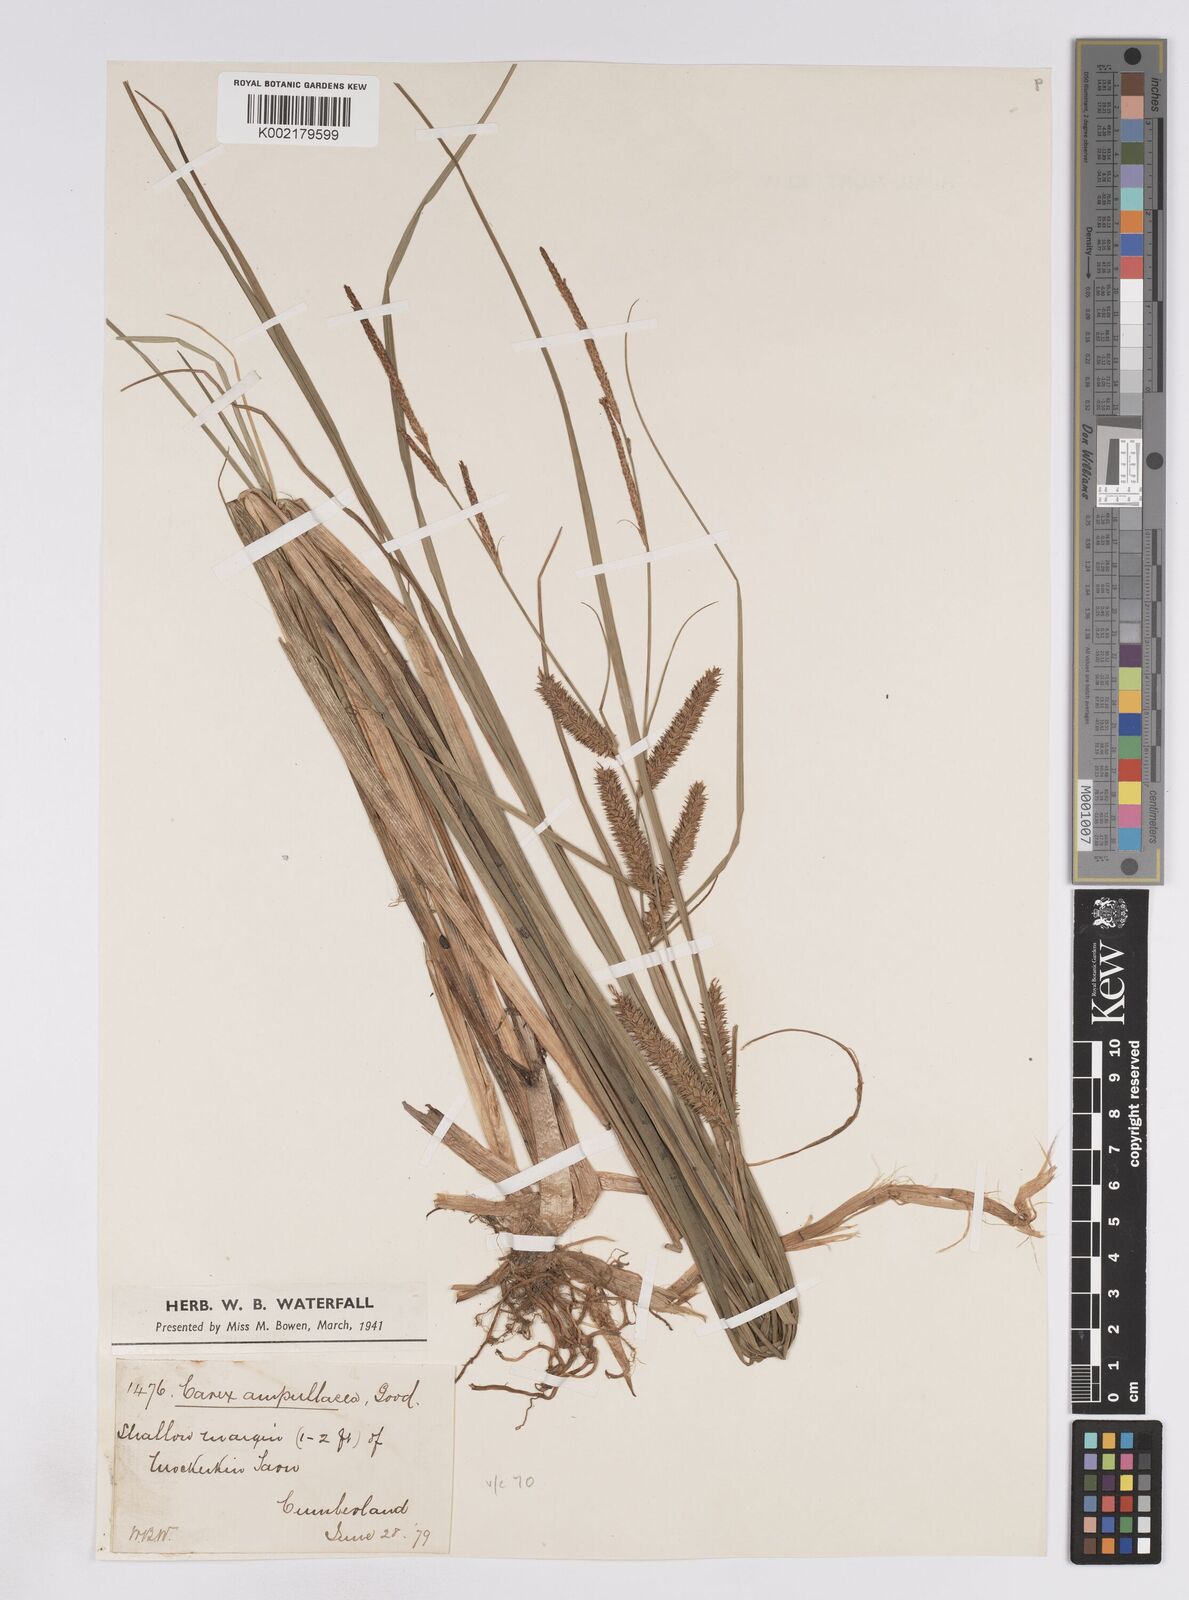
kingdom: Plantae
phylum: Tracheophyta
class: Liliopsida
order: Poales
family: Cyperaceae
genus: Carex
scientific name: Carex rostrata
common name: Bottle sedge
